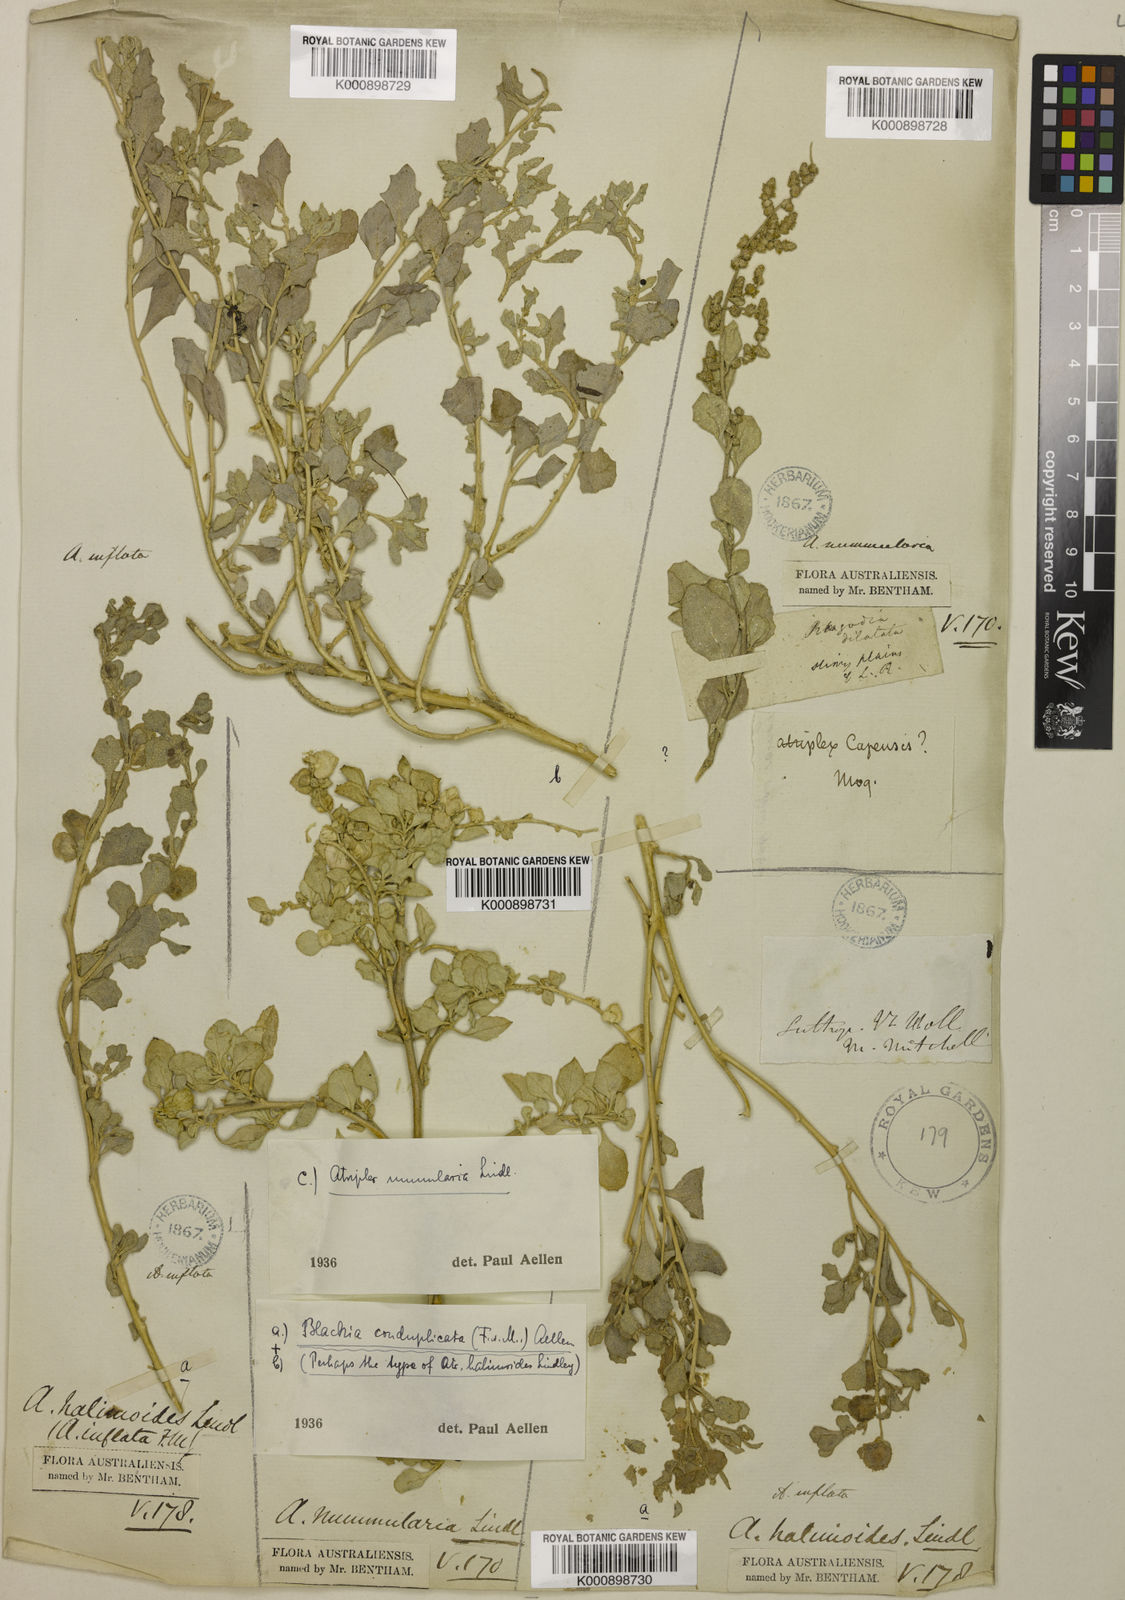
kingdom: Plantae
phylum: Tracheophyta
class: Magnoliopsida
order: Caryophyllales
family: Amaranthaceae
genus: Atriplex
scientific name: Atriplex lindleyi
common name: Lindley's saltbush
